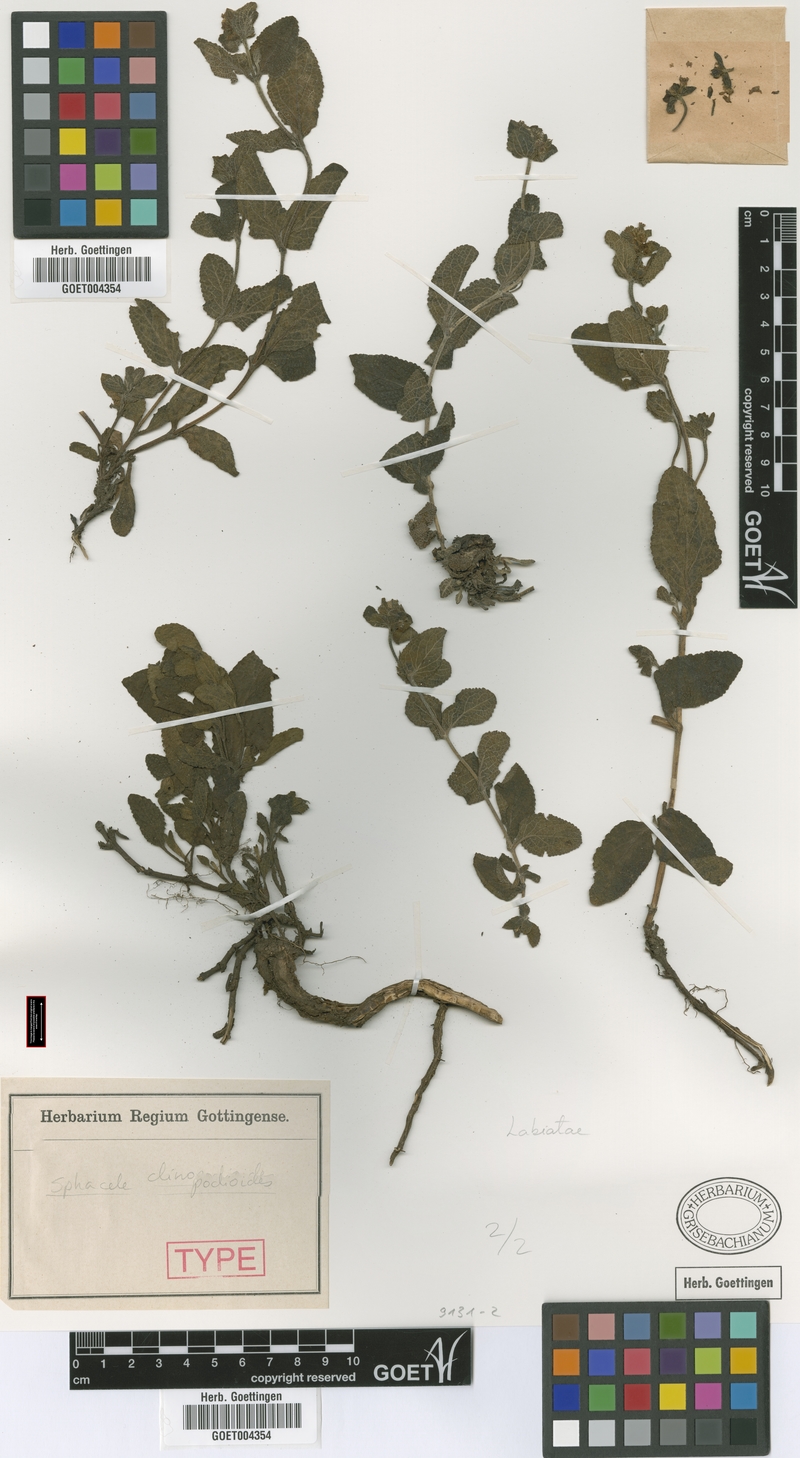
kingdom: Plantae
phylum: Tracheophyta
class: Magnoliopsida
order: Lamiales
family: Lamiaceae
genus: Lepechinia
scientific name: Lepechinia meyenii
